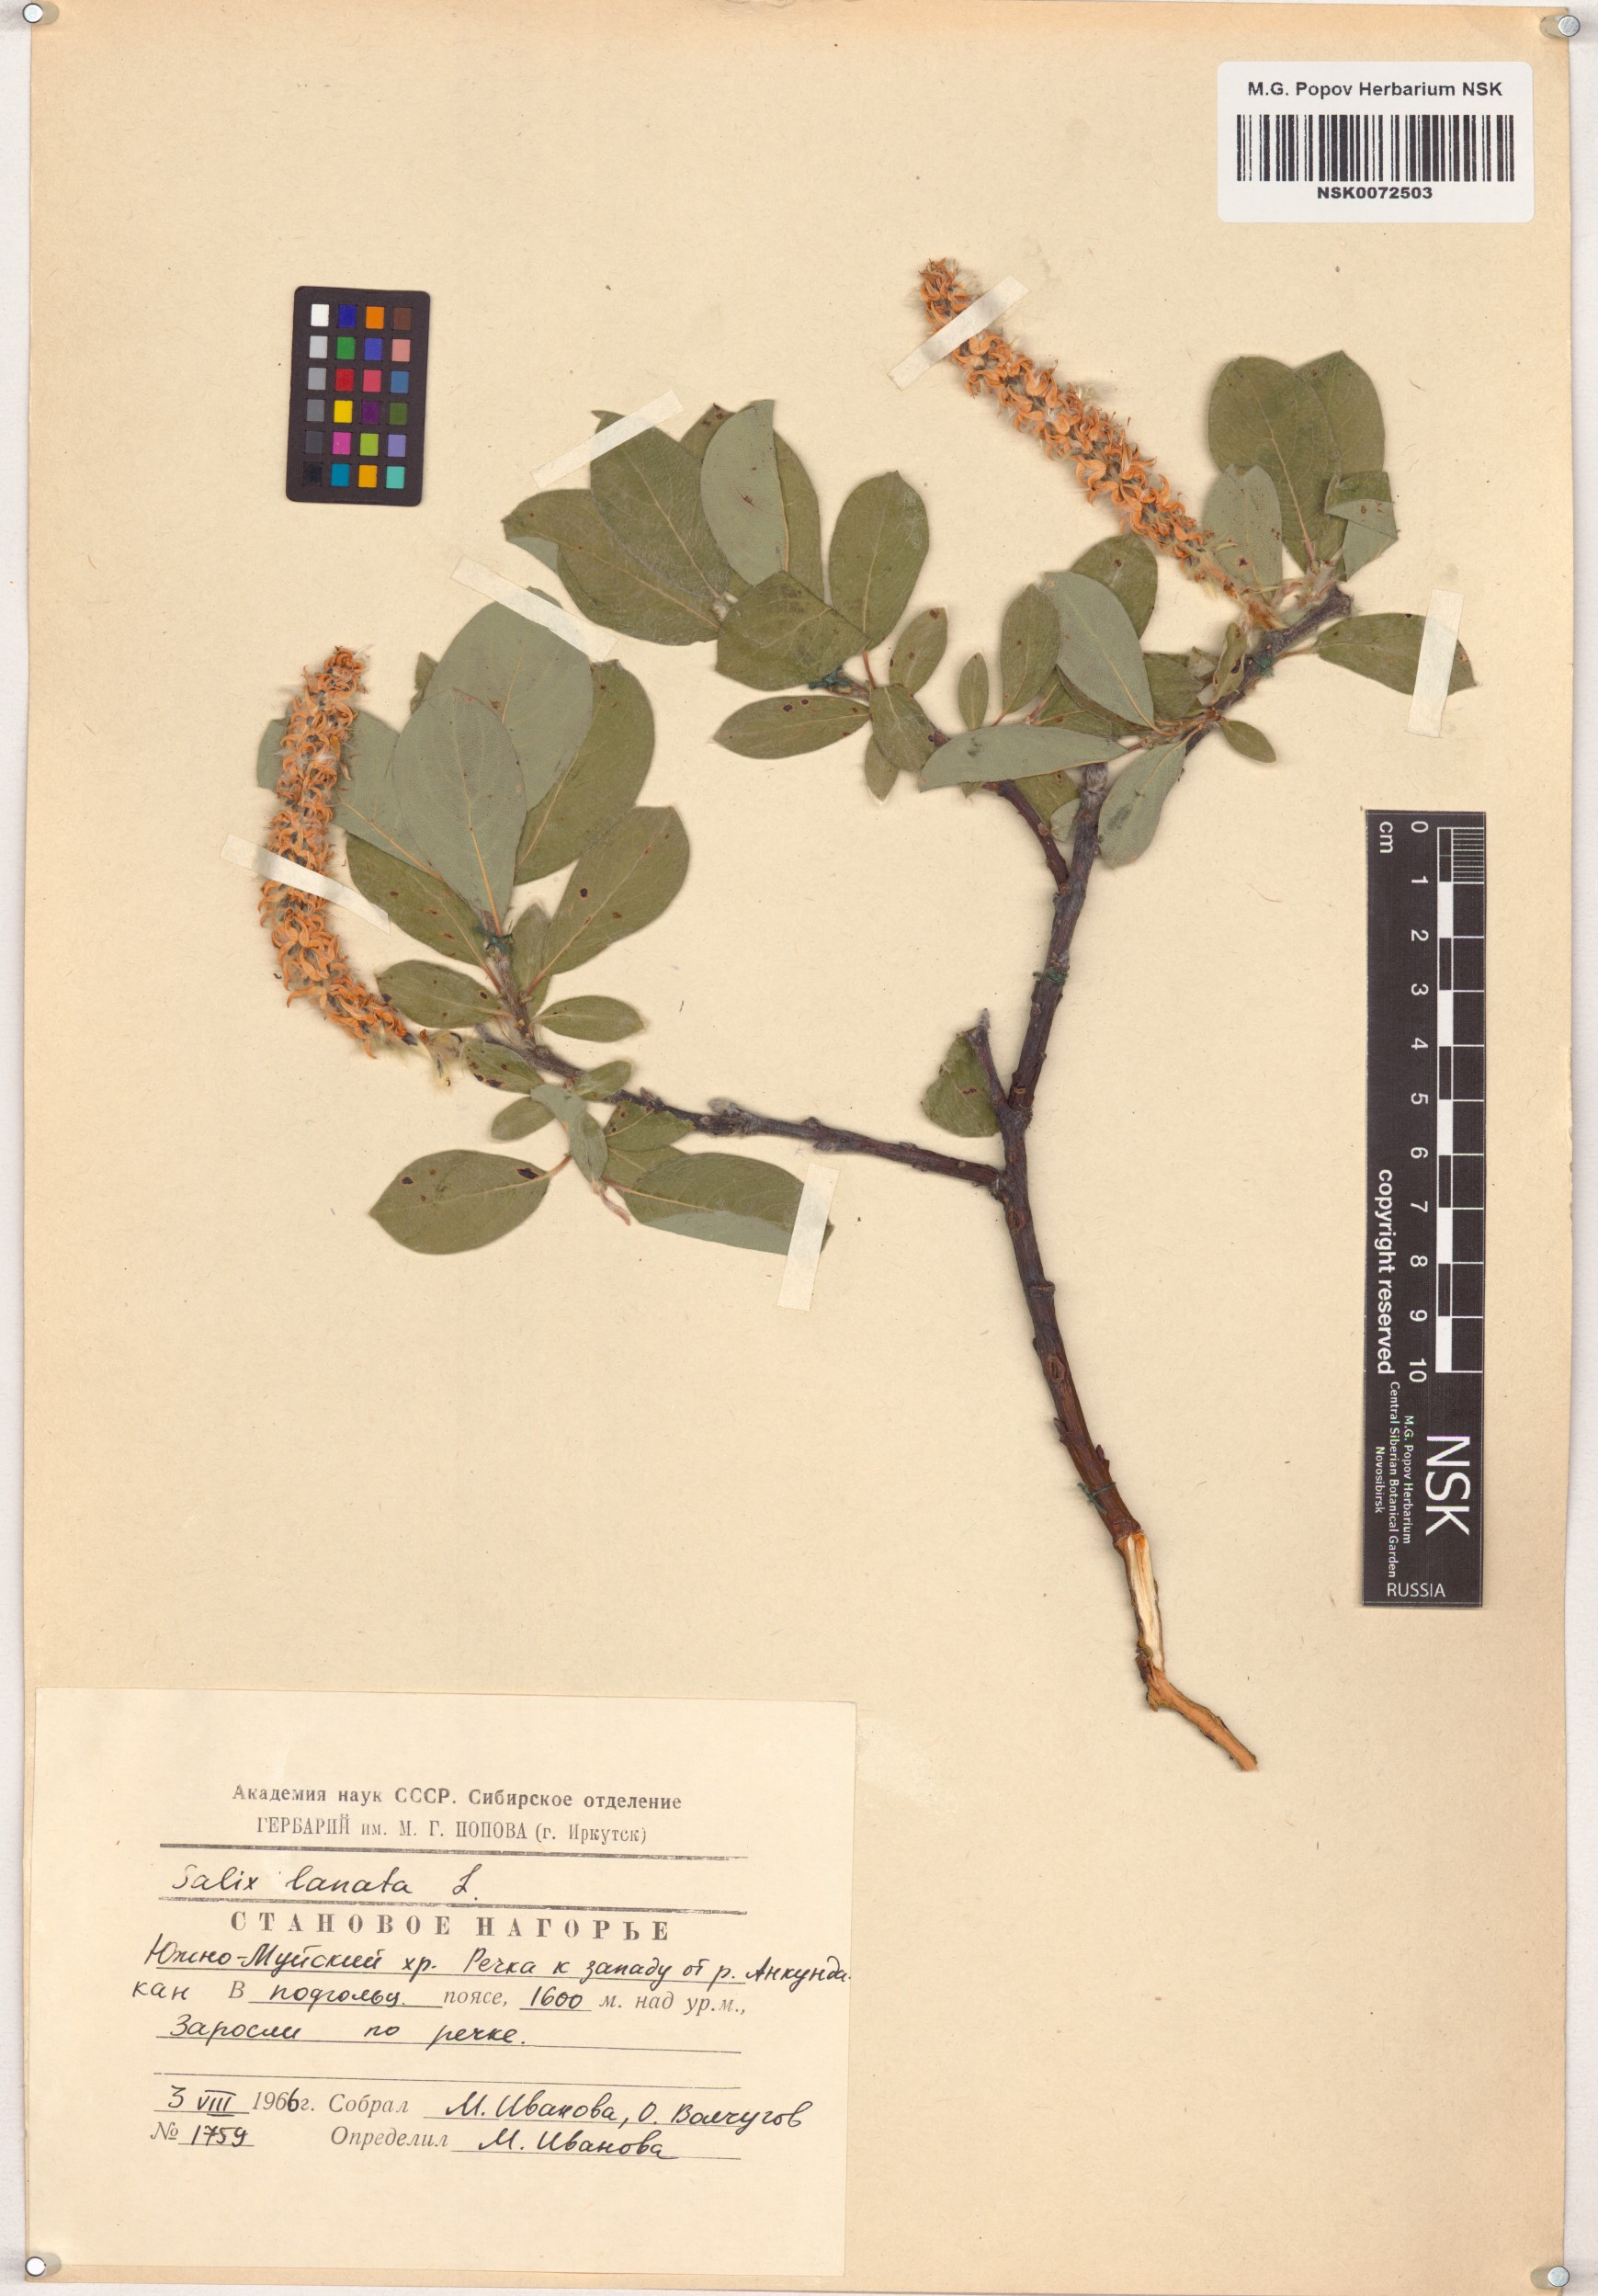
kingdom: Plantae
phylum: Tracheophyta
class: Magnoliopsida
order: Malpighiales
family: Salicaceae
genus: Salix
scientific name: Salix lanata
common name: Woolly willow
